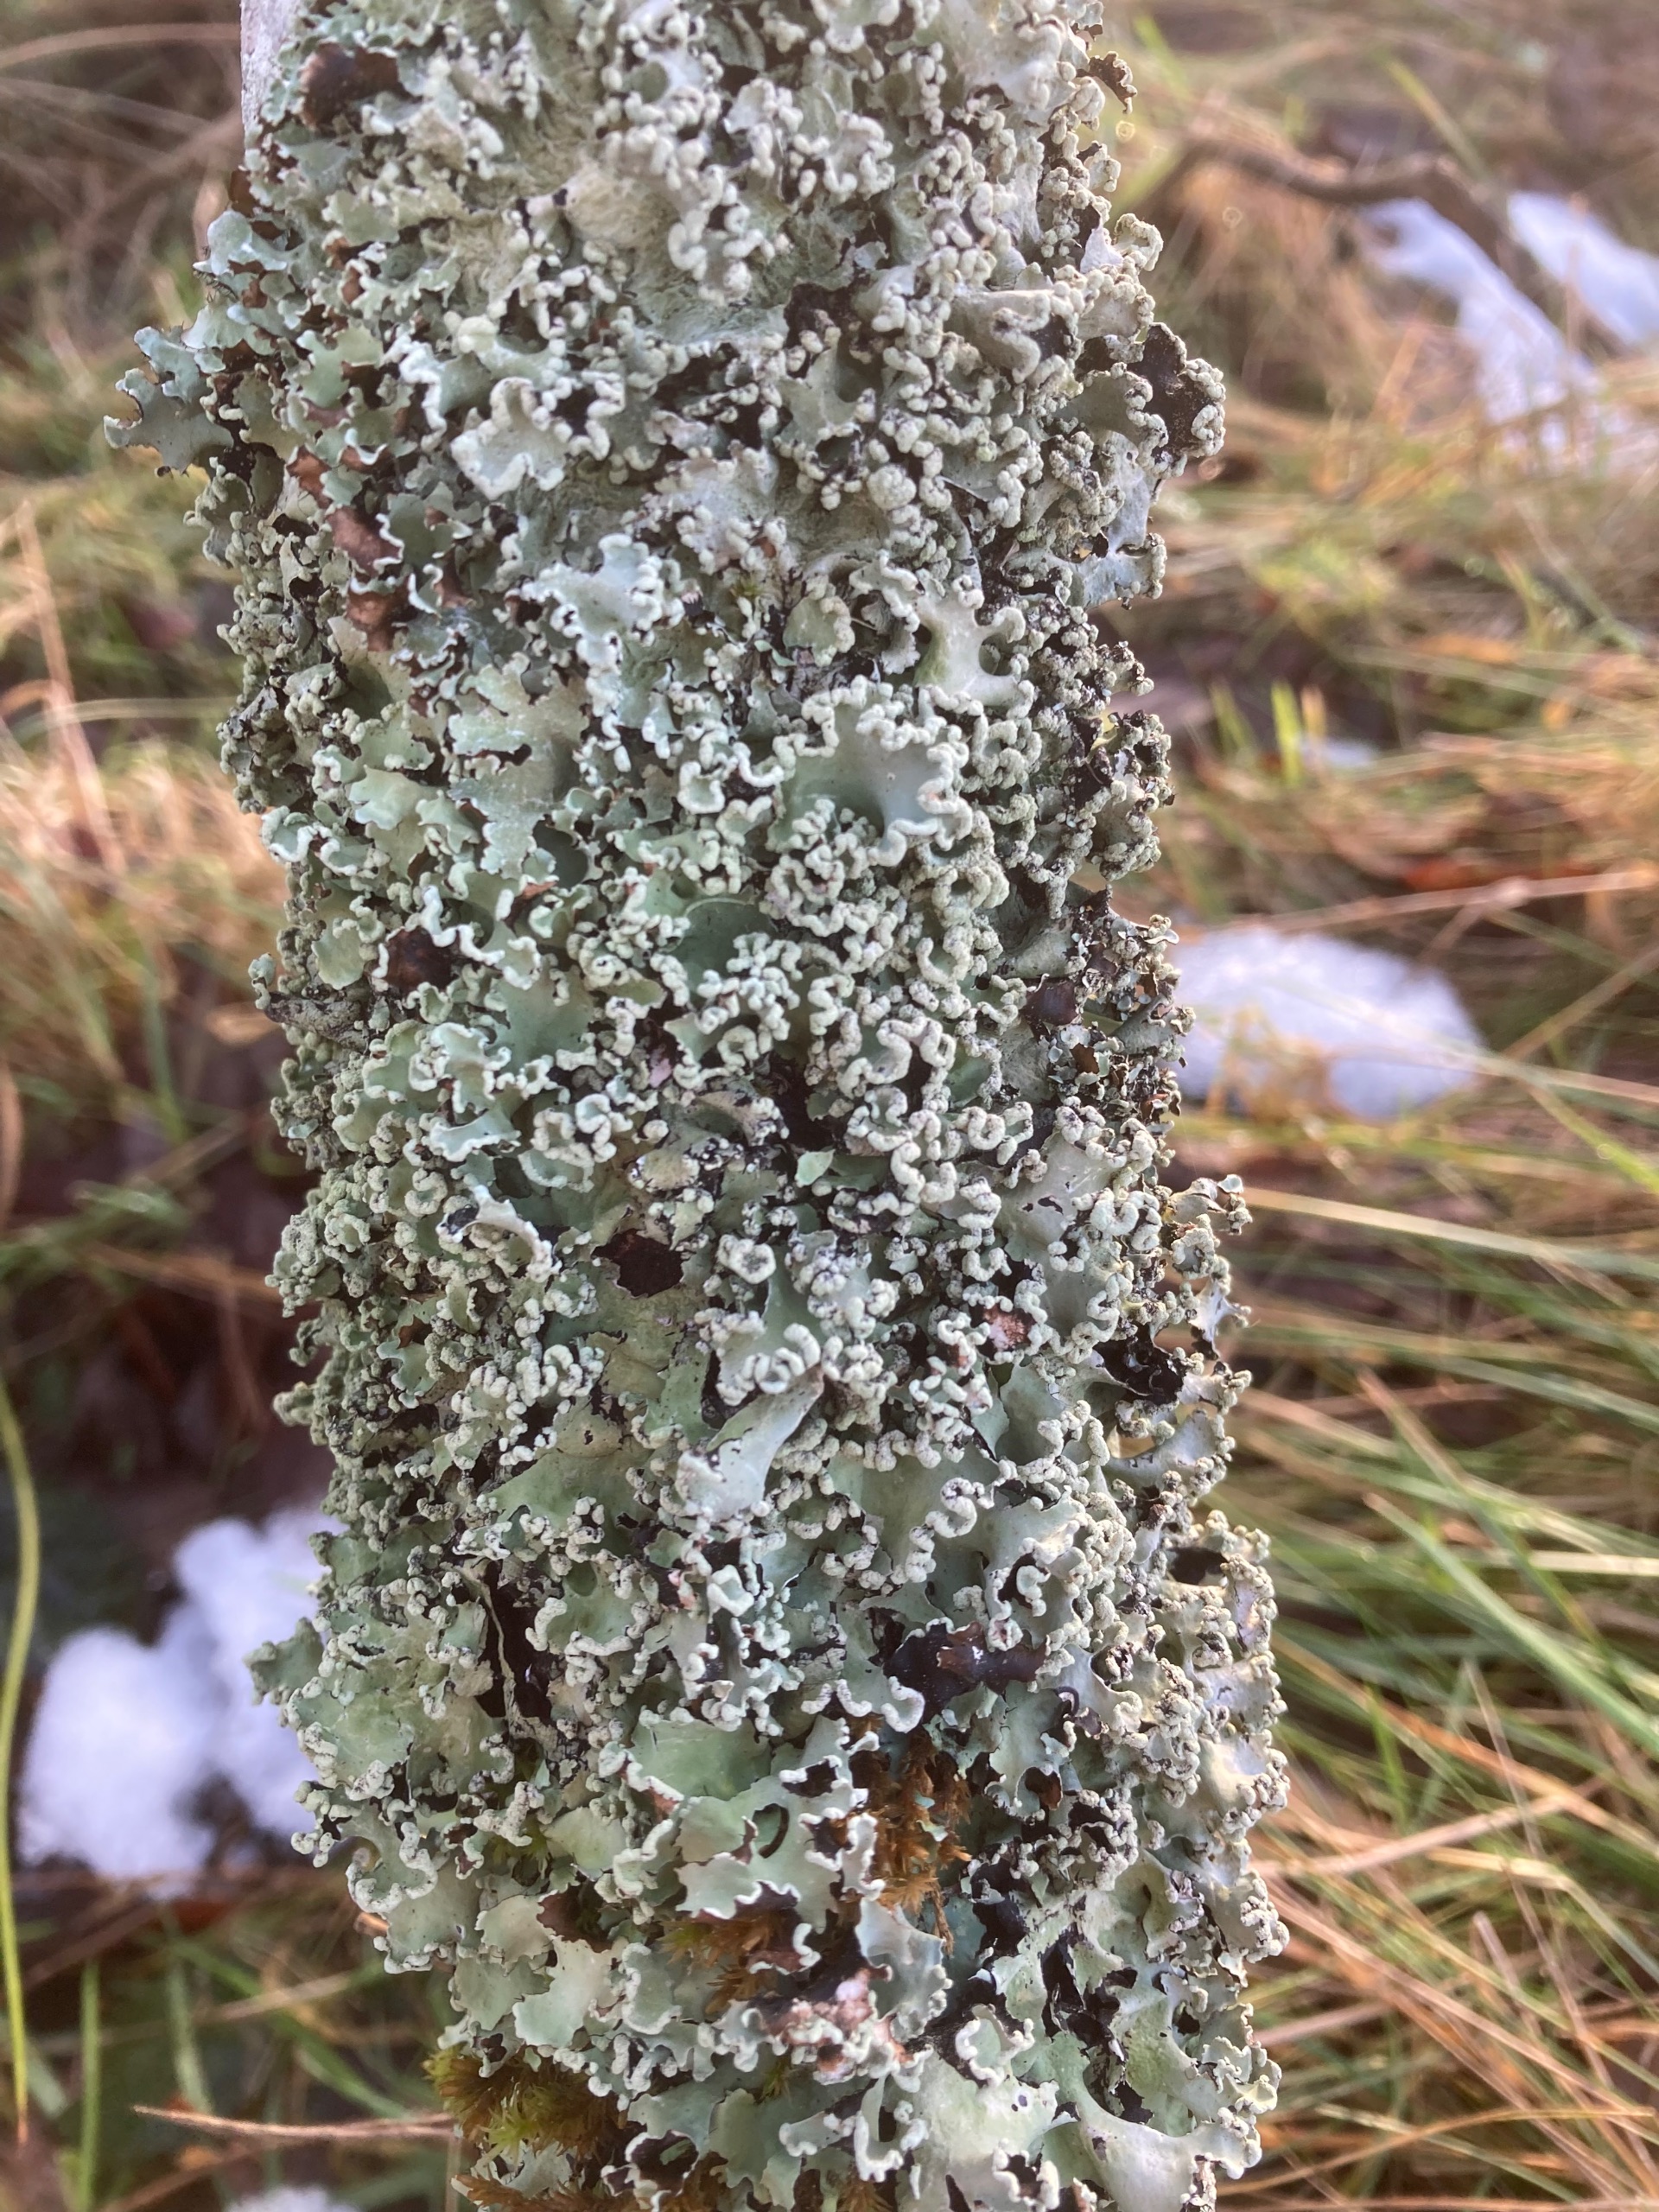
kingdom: Fungi
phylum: Ascomycota
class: Lecanoromycetes
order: Lecanorales
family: Parmeliaceae
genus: Parmotrema
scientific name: Parmotrema perlatum
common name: Trådet skållav
